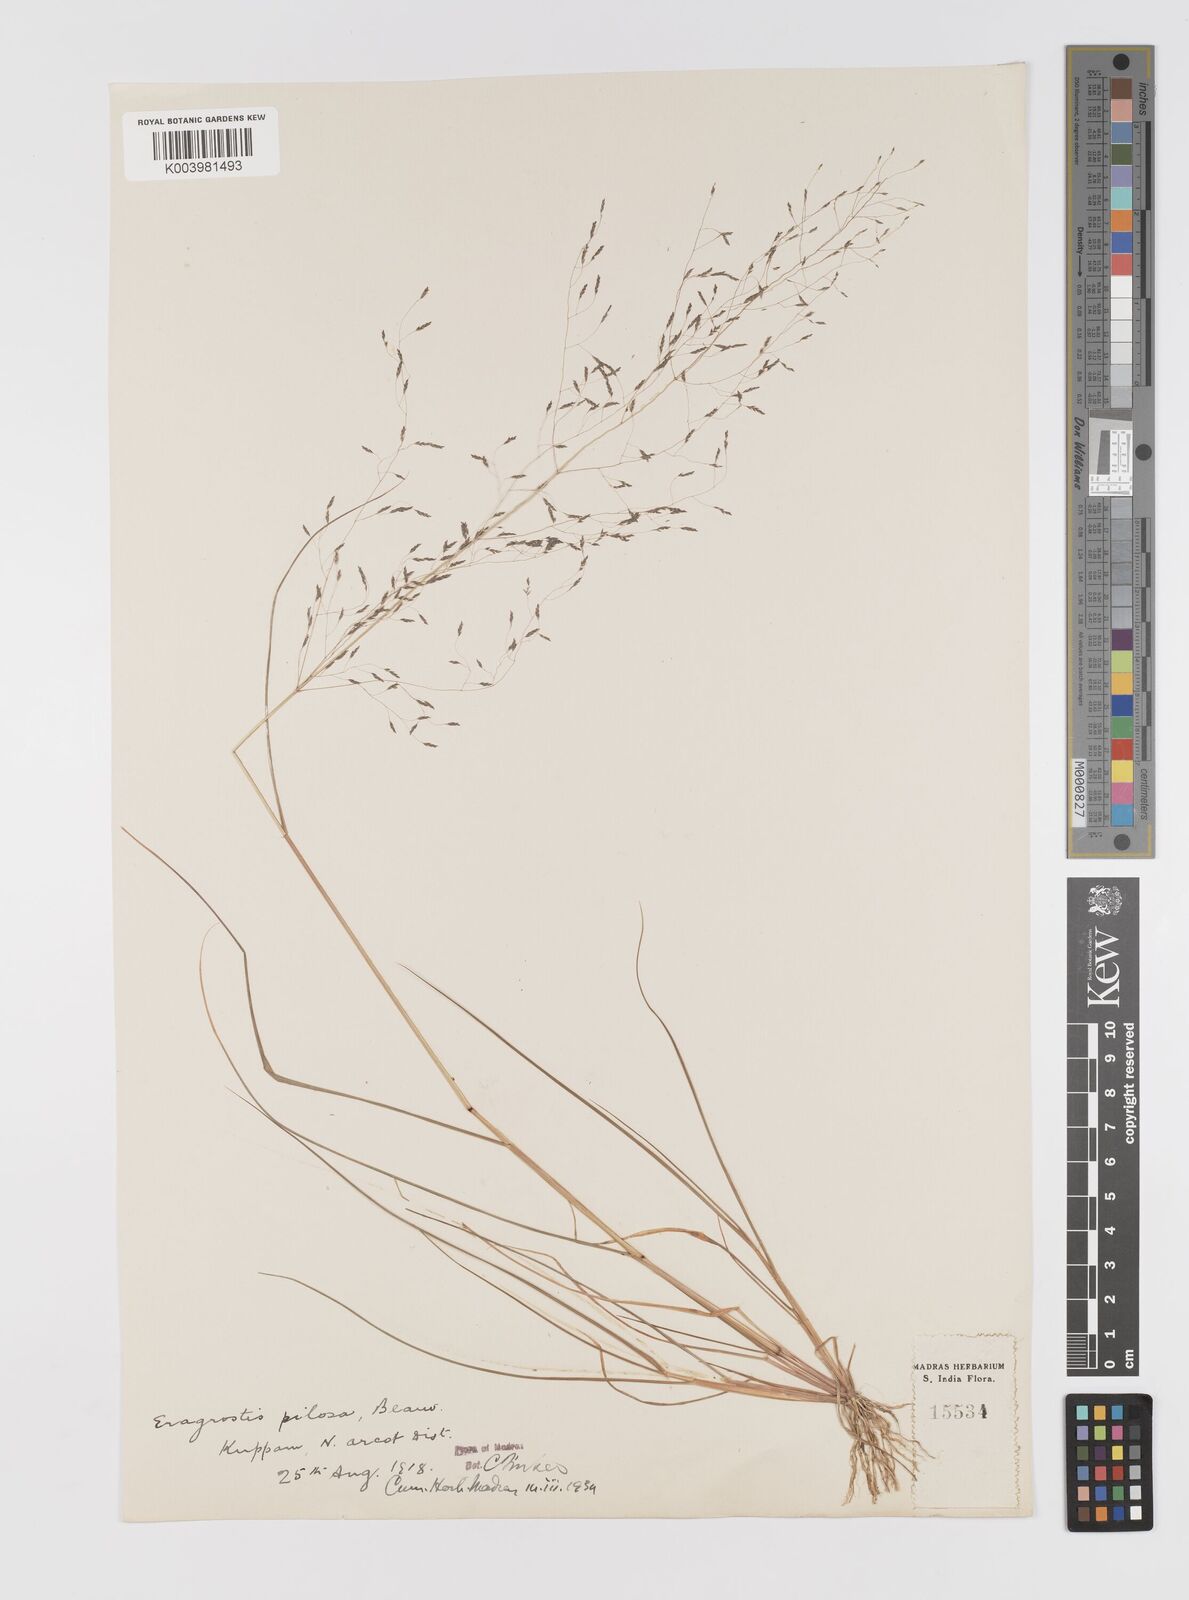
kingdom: Plantae
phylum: Tracheophyta
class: Liliopsida
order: Poales
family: Poaceae
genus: Eragrostis
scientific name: Eragrostis pilosa
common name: Indian lovegrass
